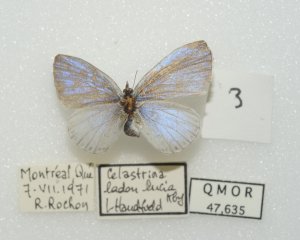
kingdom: Animalia
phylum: Arthropoda
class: Insecta
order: Lepidoptera
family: Lycaenidae
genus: Cyaniris
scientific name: Cyaniris neglecta
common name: Summer Azure
